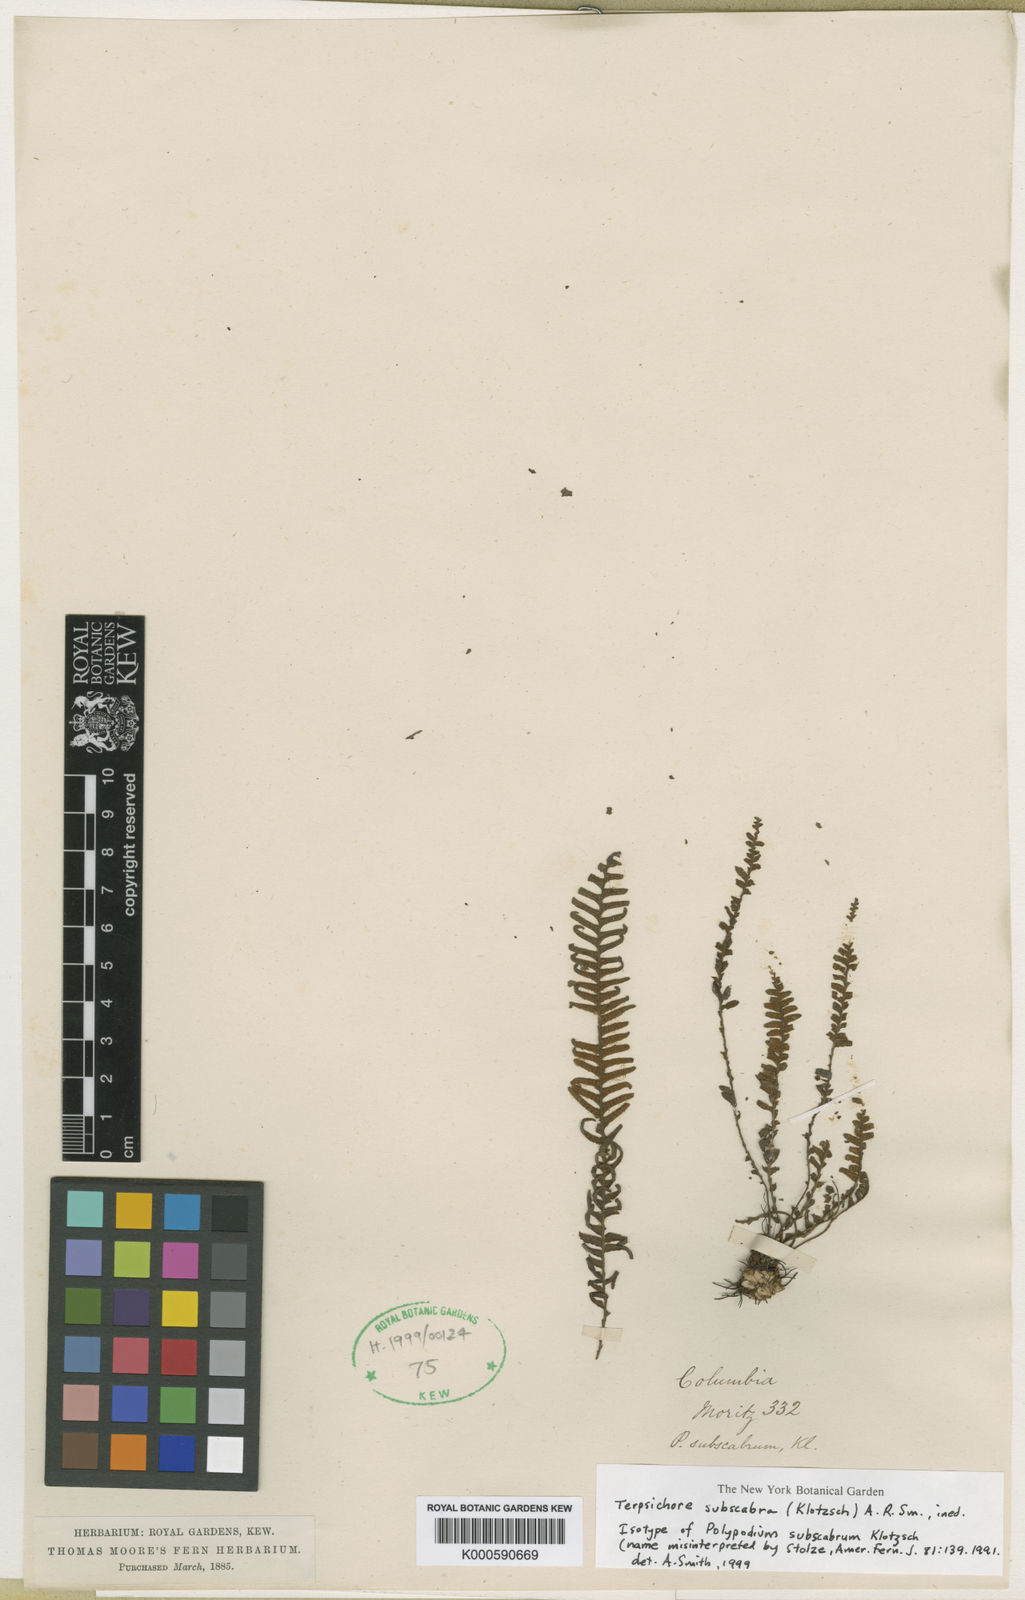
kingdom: Plantae
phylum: Tracheophyta
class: Polypodiopsida
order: Polypodiales
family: Polypodiaceae
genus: Terpsichore
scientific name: Terpsichore
